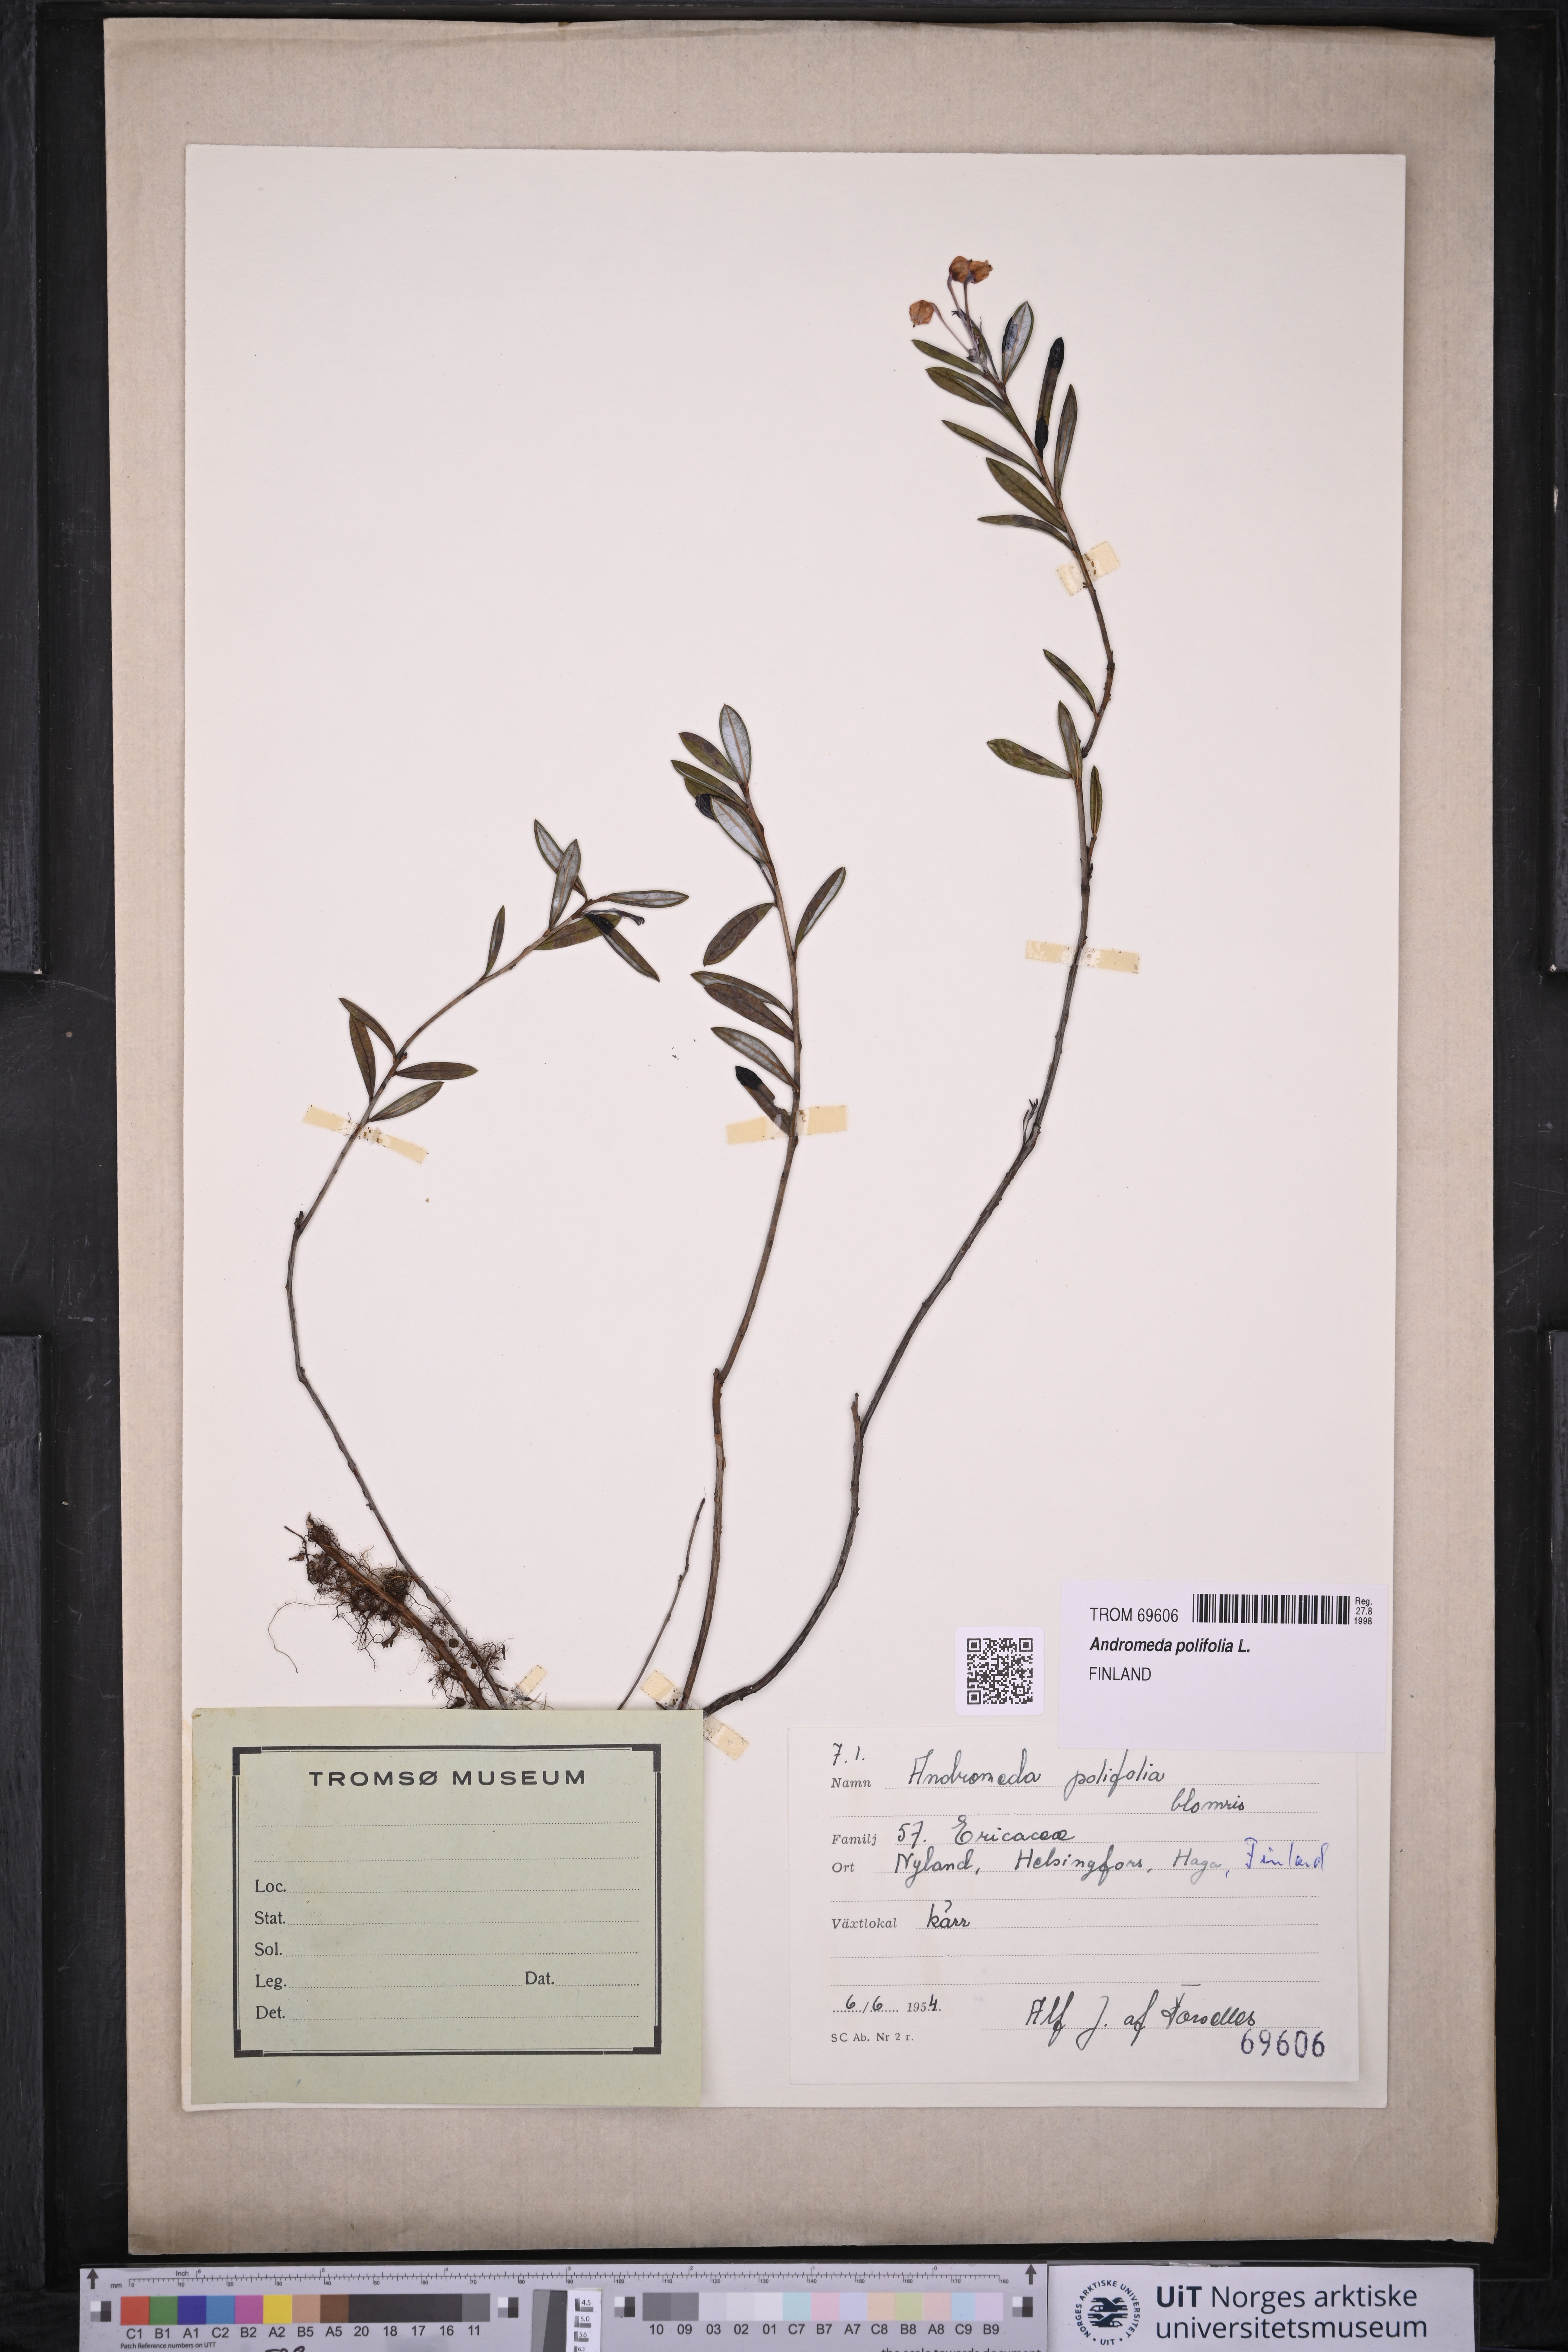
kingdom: Plantae
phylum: Tracheophyta
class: Magnoliopsida
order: Ericales
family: Ericaceae
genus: Andromeda
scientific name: Andromeda polifolia
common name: Bog-rosemary
